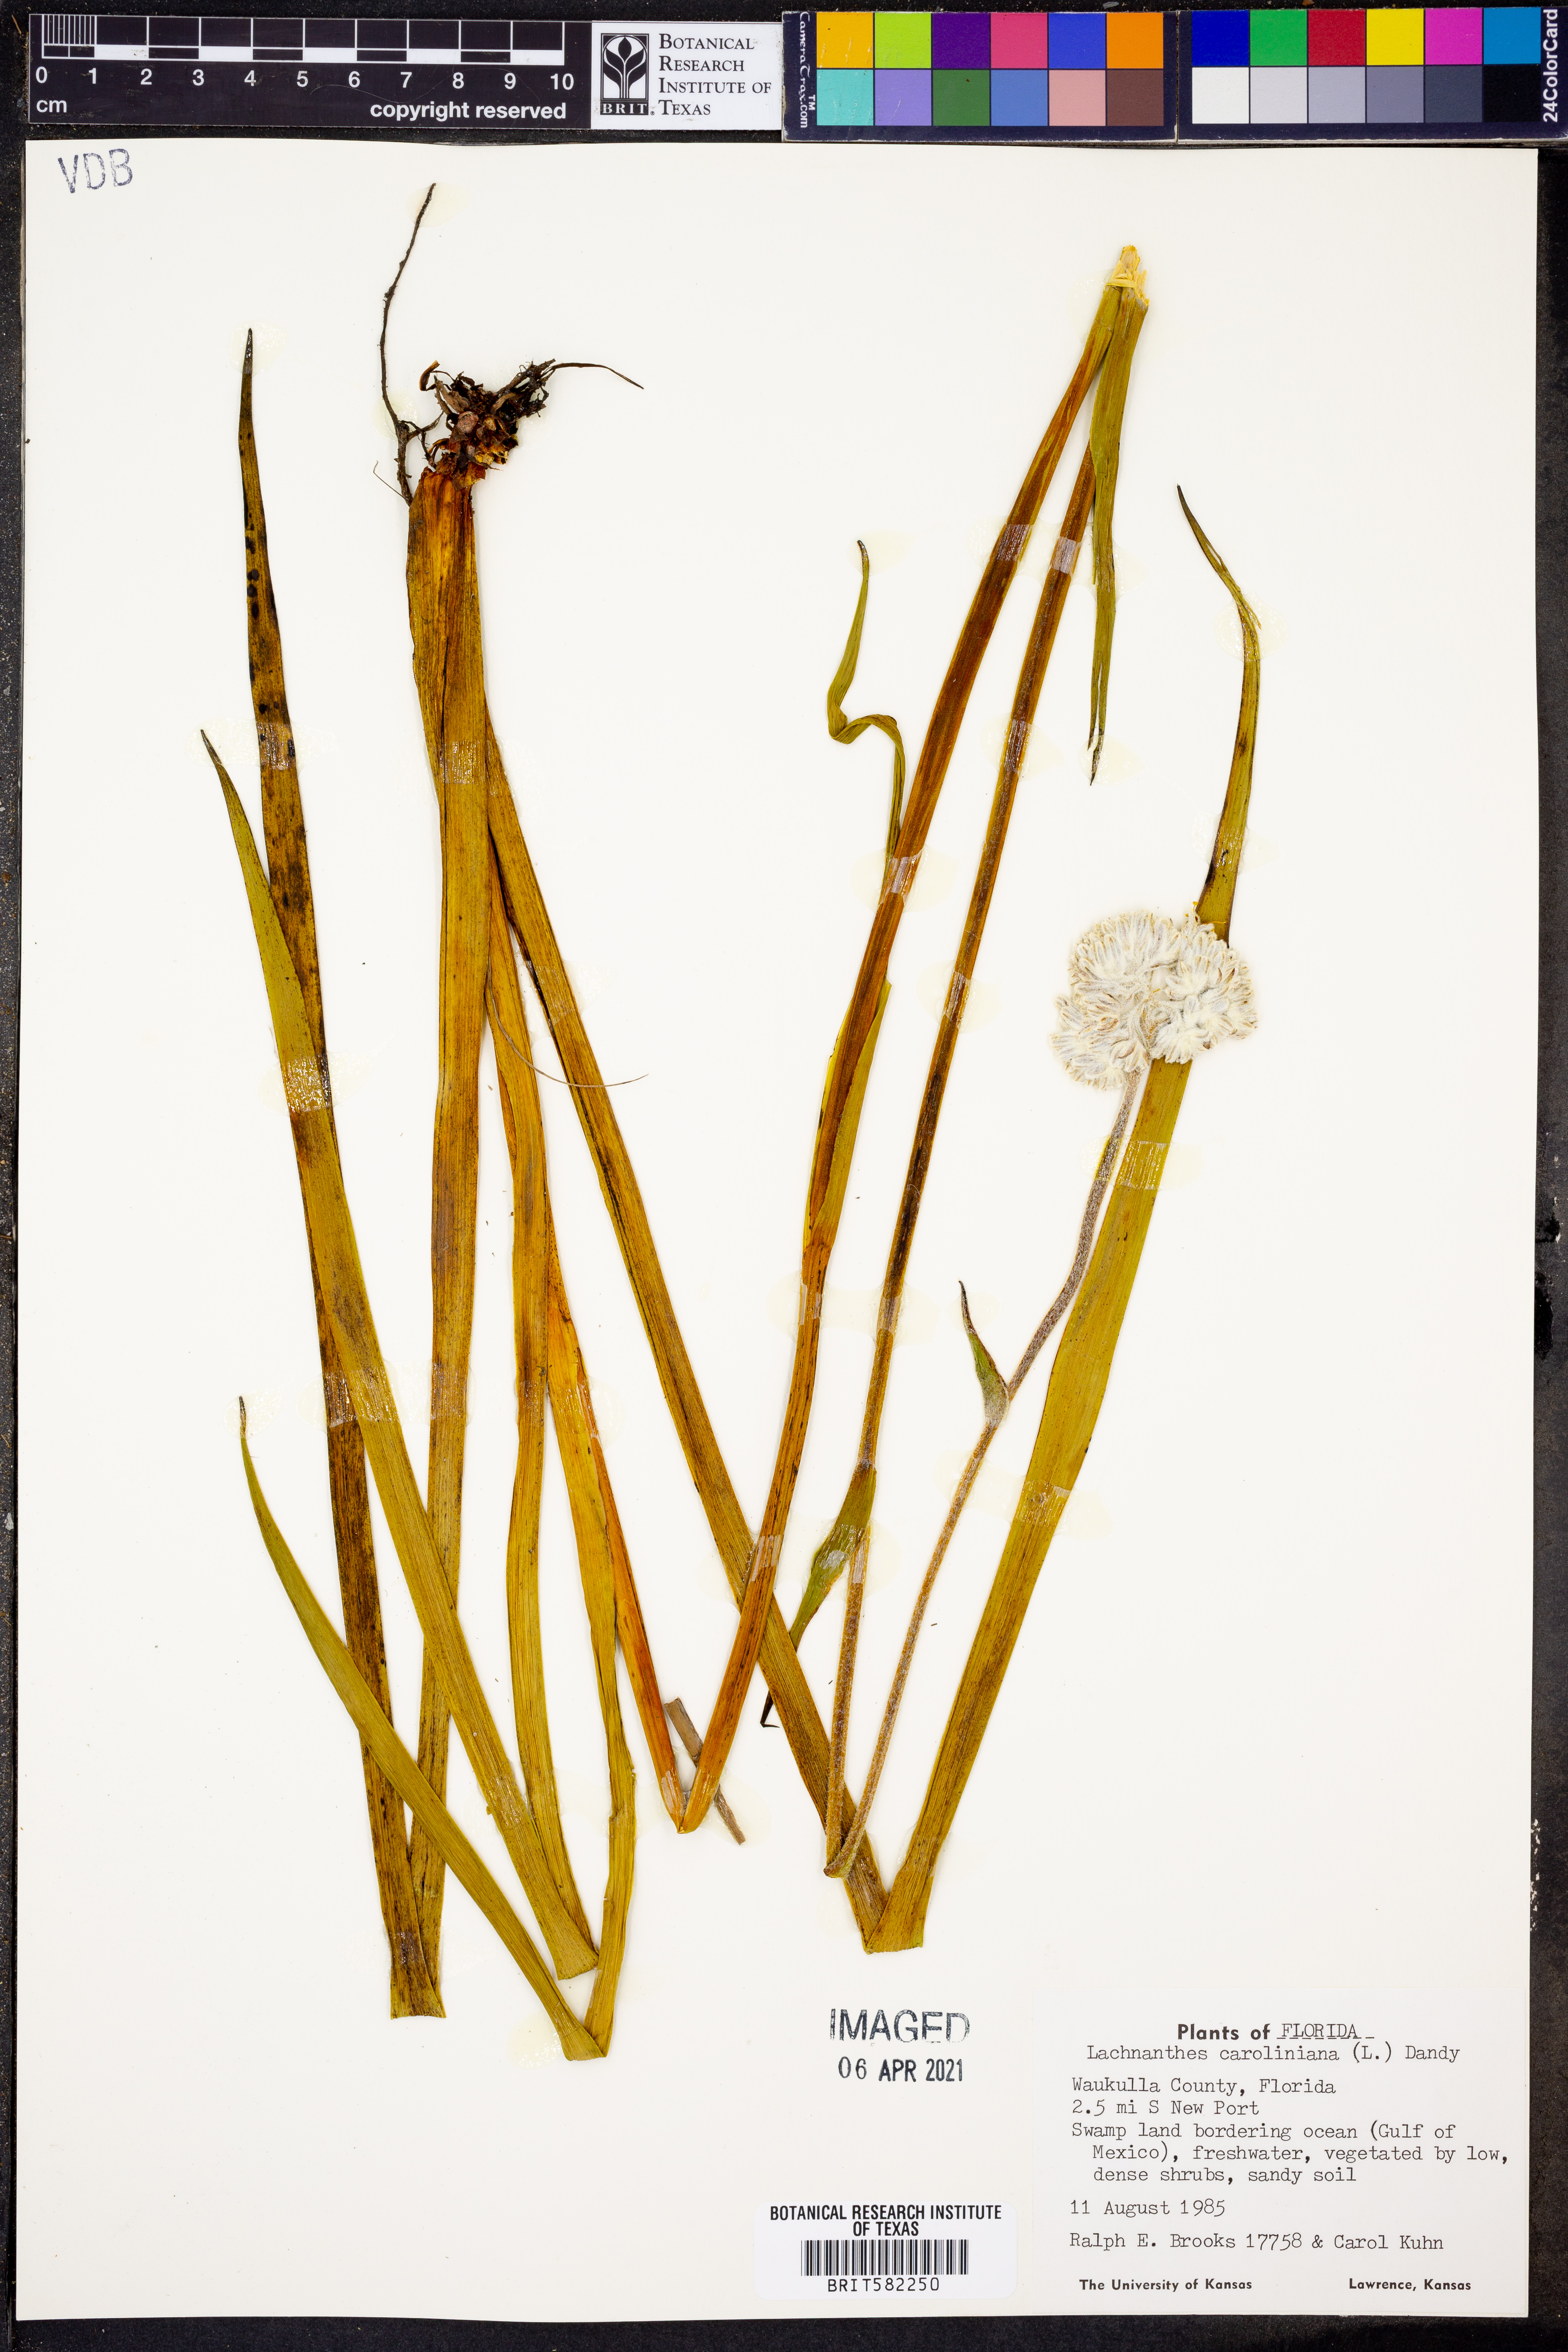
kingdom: Plantae
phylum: Tracheophyta
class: Liliopsida
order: Commelinales
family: Haemodoraceae
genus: Lachnanthes
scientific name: Lachnanthes caroliniana
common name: Carolina redroot
